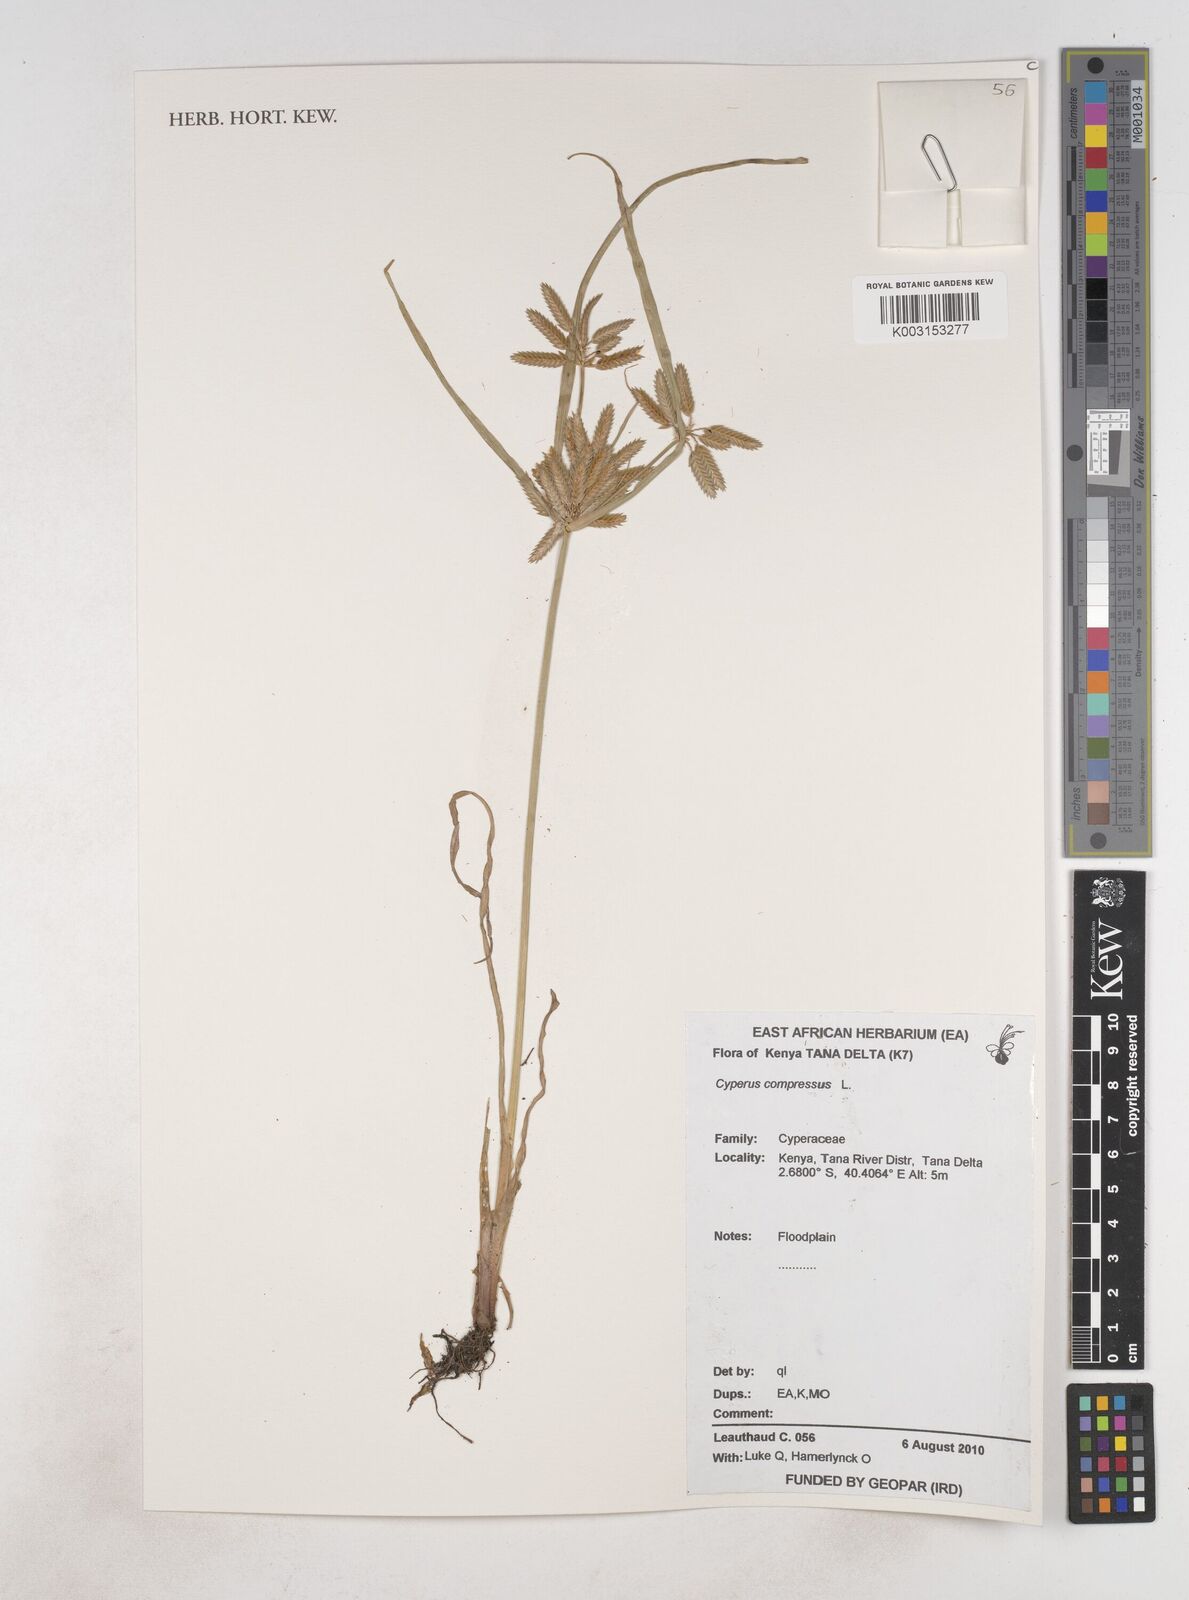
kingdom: Plantae
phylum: Tracheophyta
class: Liliopsida
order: Poales
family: Cyperaceae
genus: Cyperus
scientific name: Cyperus compressus
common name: Poorland flatsedge
